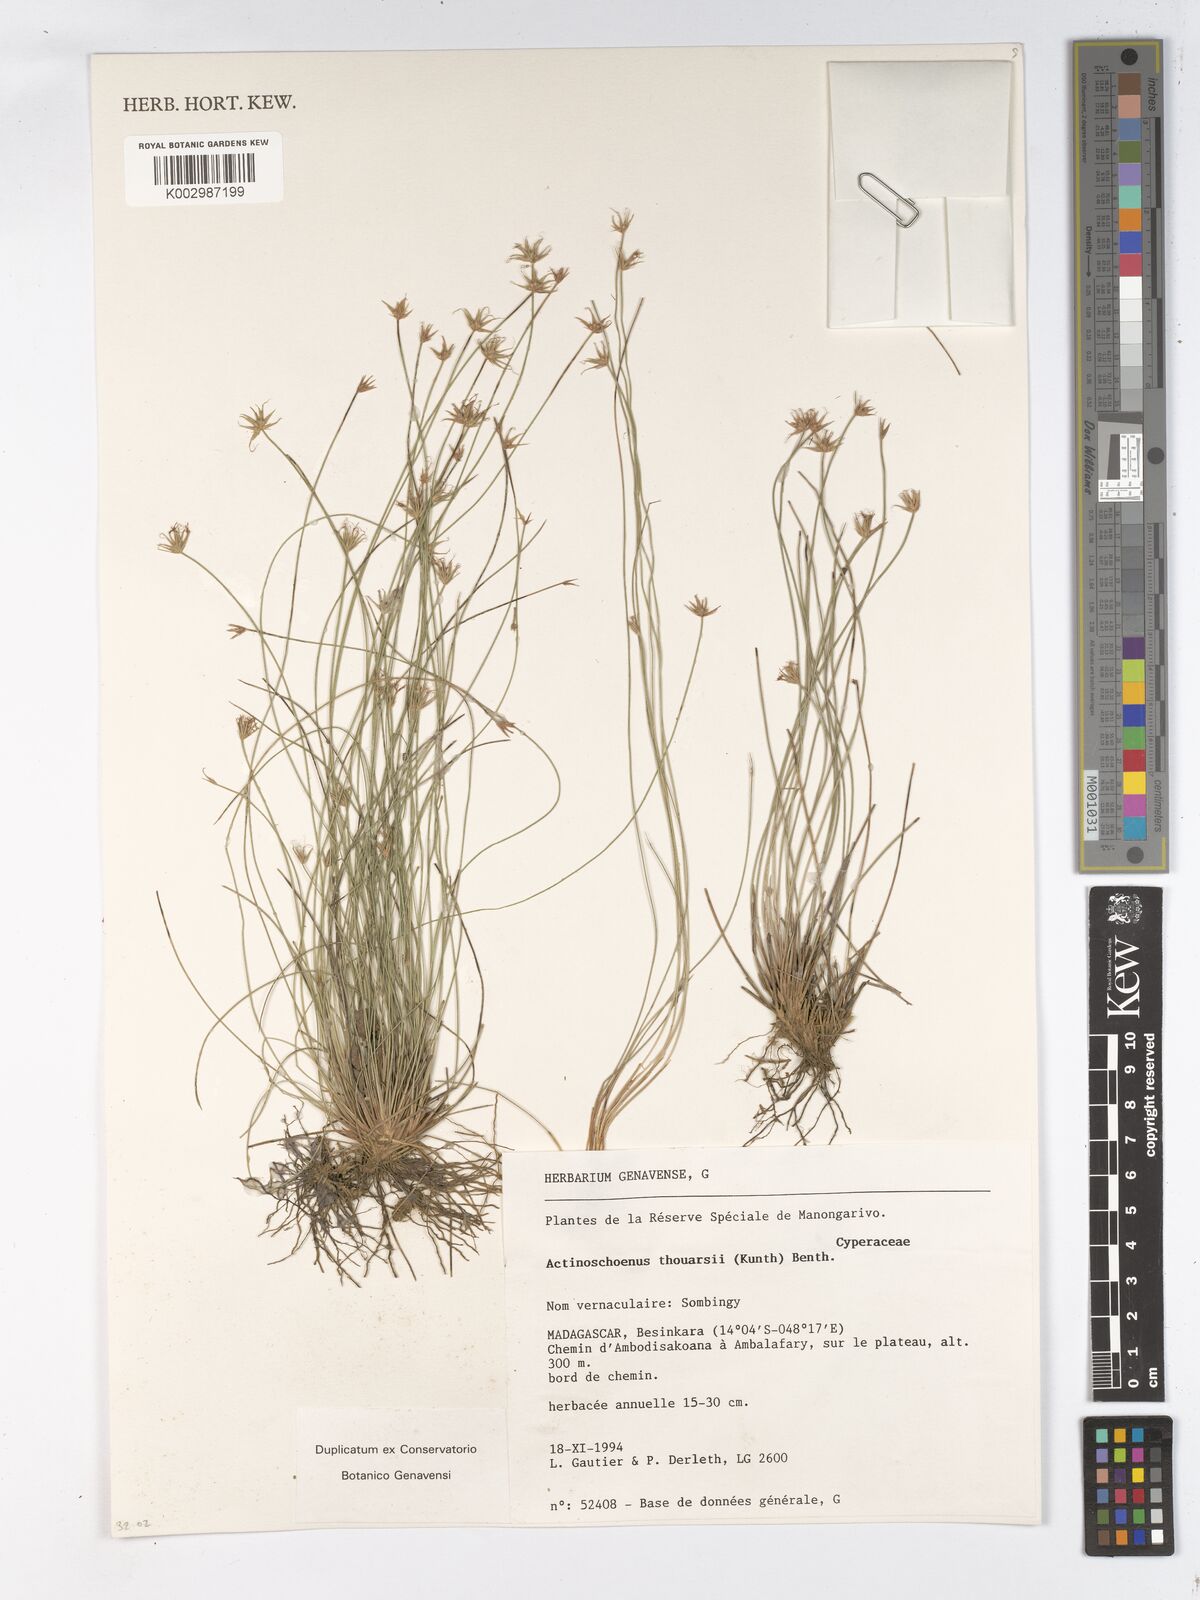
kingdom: Plantae
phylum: Tracheophyta
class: Liliopsida
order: Poales
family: Cyperaceae
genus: Actinoschoenus
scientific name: Actinoschoenus aphyllus
